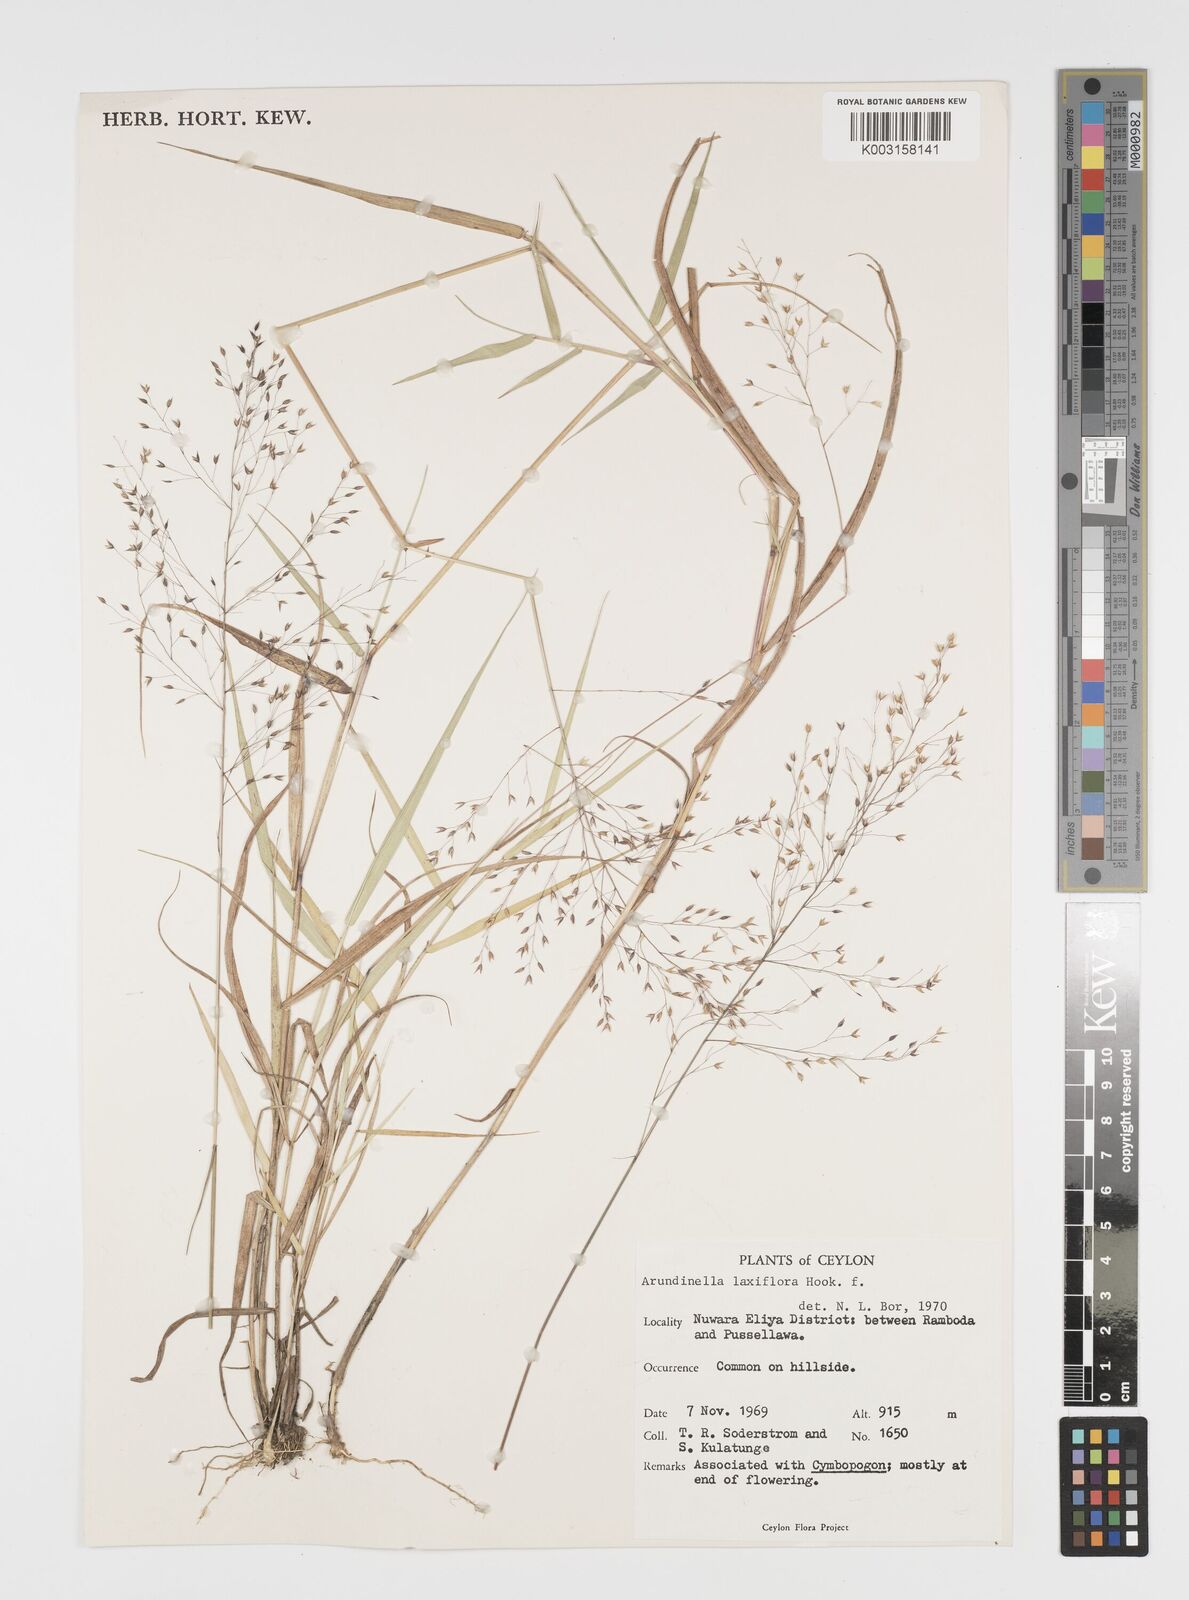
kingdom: Plantae
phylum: Tracheophyta
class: Liliopsida
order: Poales
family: Poaceae
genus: Arundinella
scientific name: Arundinella laxiflora
